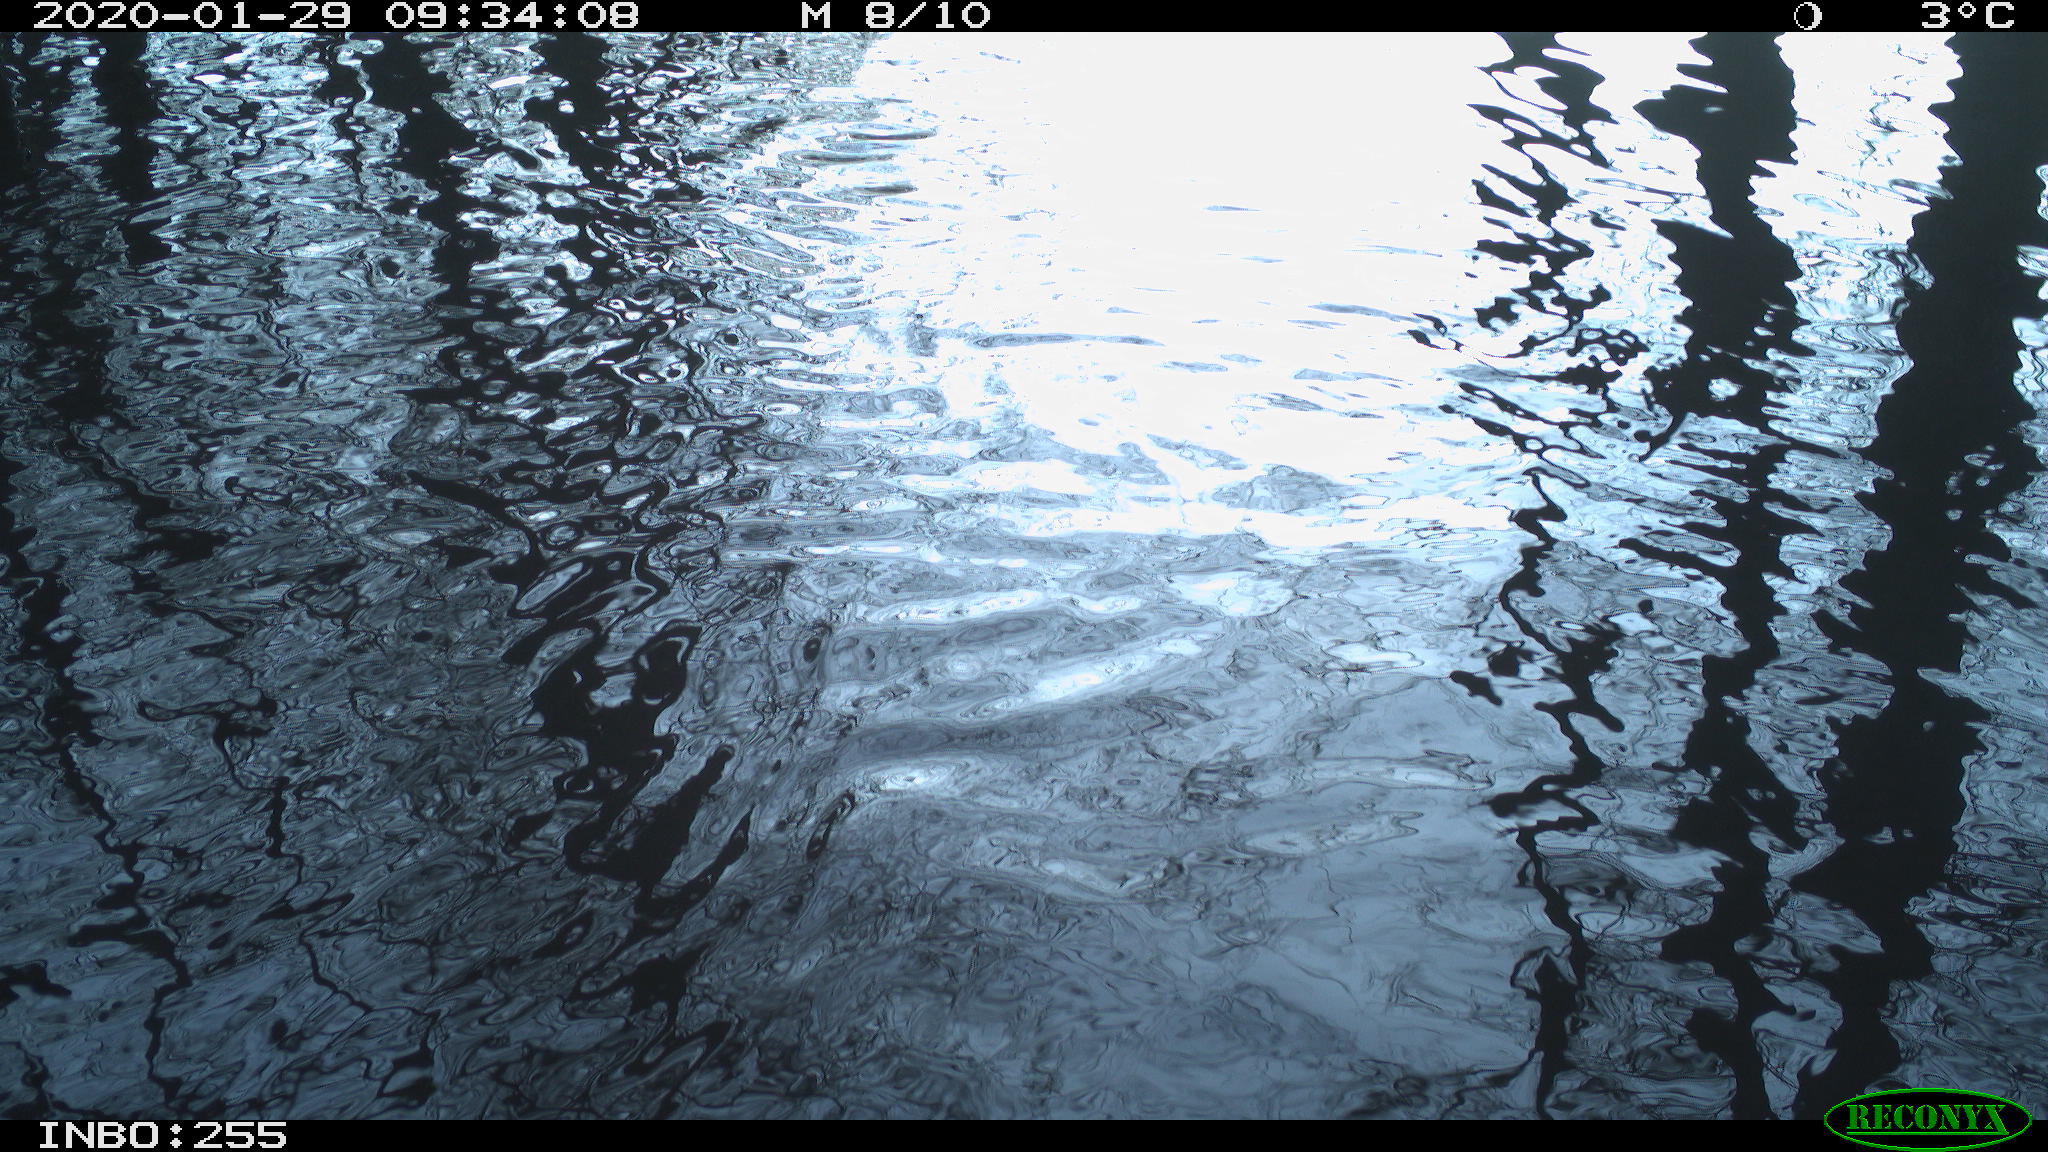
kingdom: Animalia
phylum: Chordata
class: Aves
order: Gruiformes
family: Rallidae
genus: Fulica
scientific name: Fulica atra
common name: Eurasian coot
